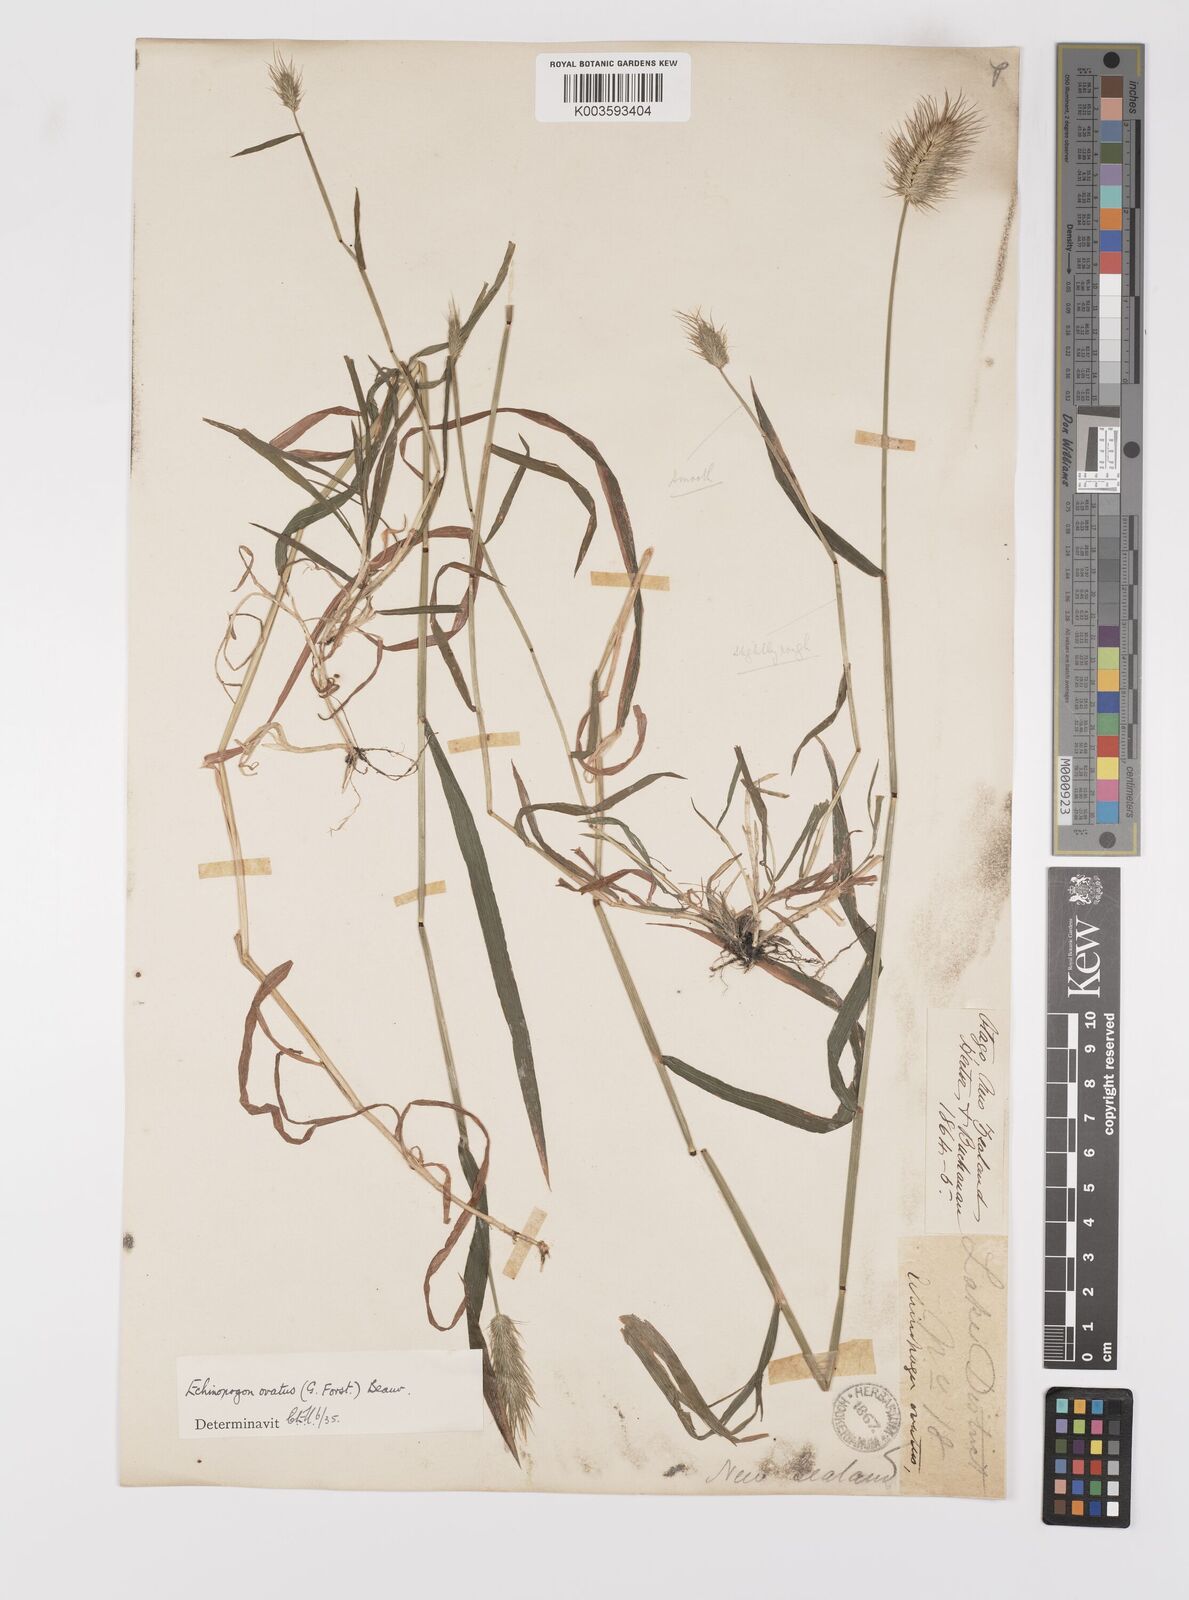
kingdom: Plantae
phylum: Tracheophyta
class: Liliopsida
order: Poales
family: Poaceae
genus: Echinopogon
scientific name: Echinopogon ovatus
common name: Hedgehog-grass
